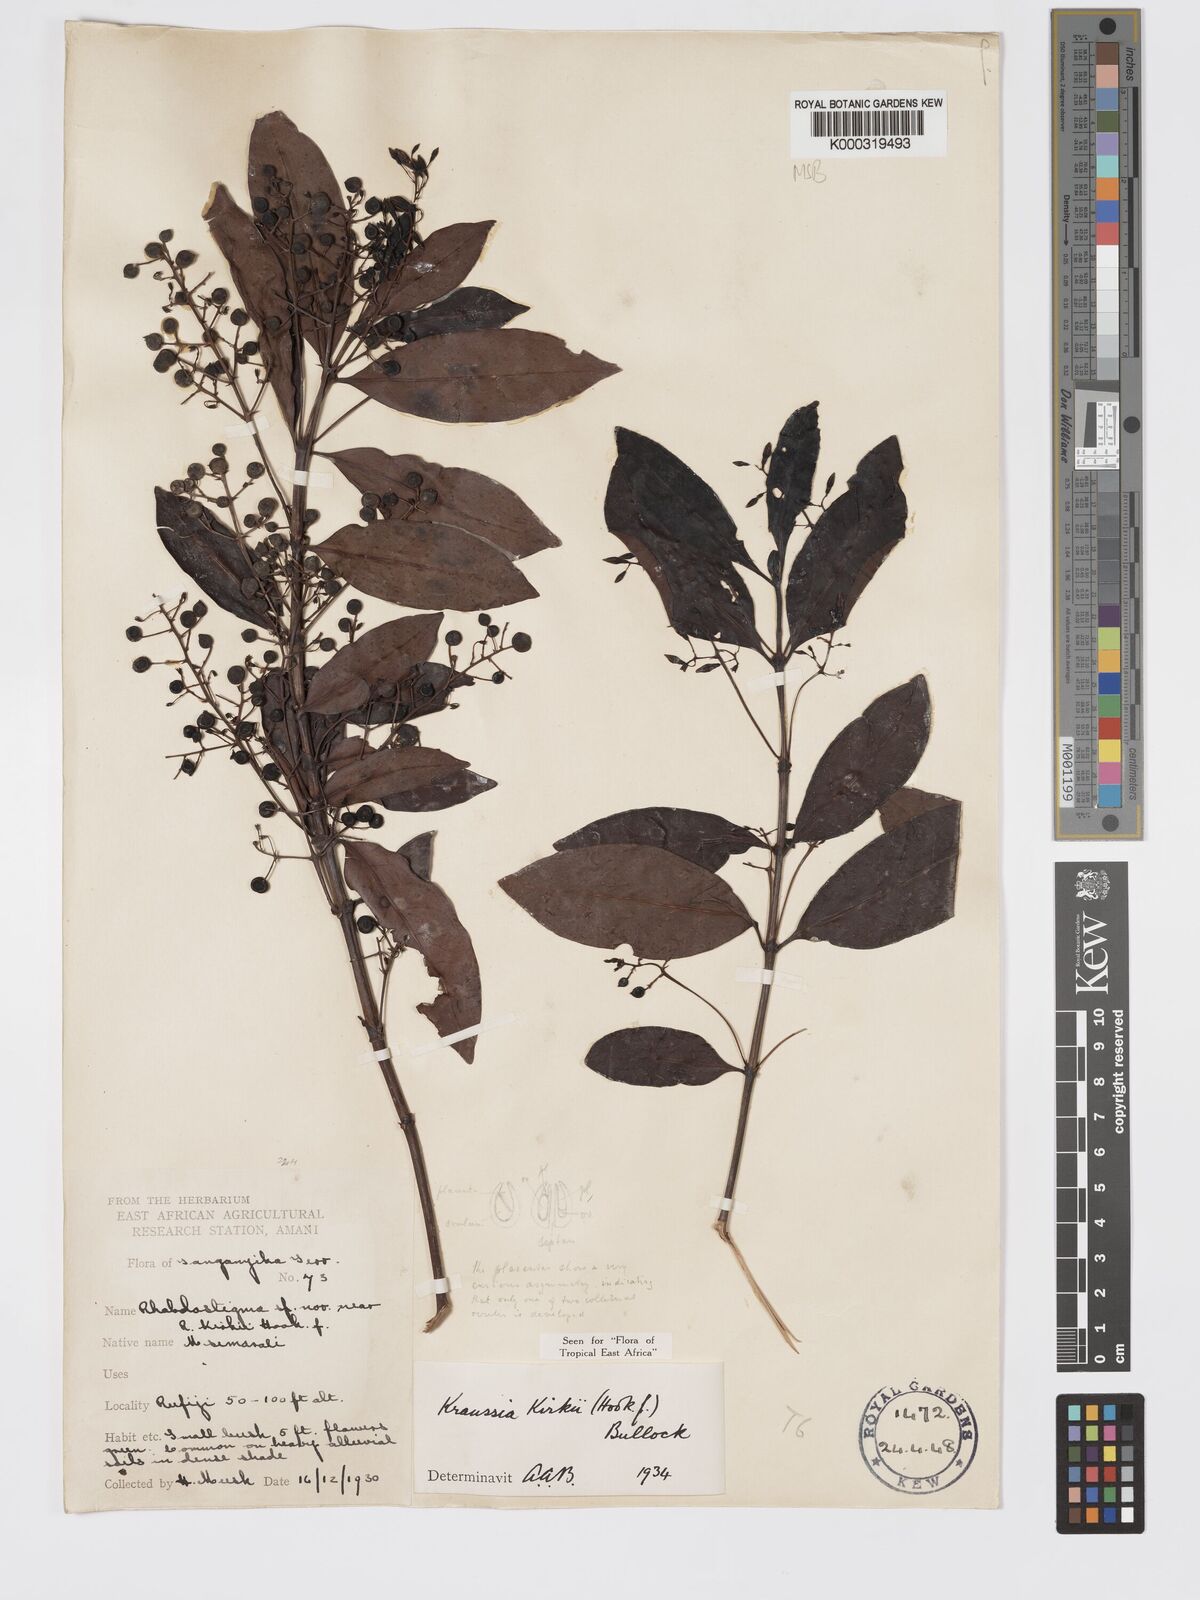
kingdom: Plantae
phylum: Tracheophyta
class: Magnoliopsida
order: Gentianales
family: Rubiaceae
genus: Kraussia
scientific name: Kraussia kirkii
